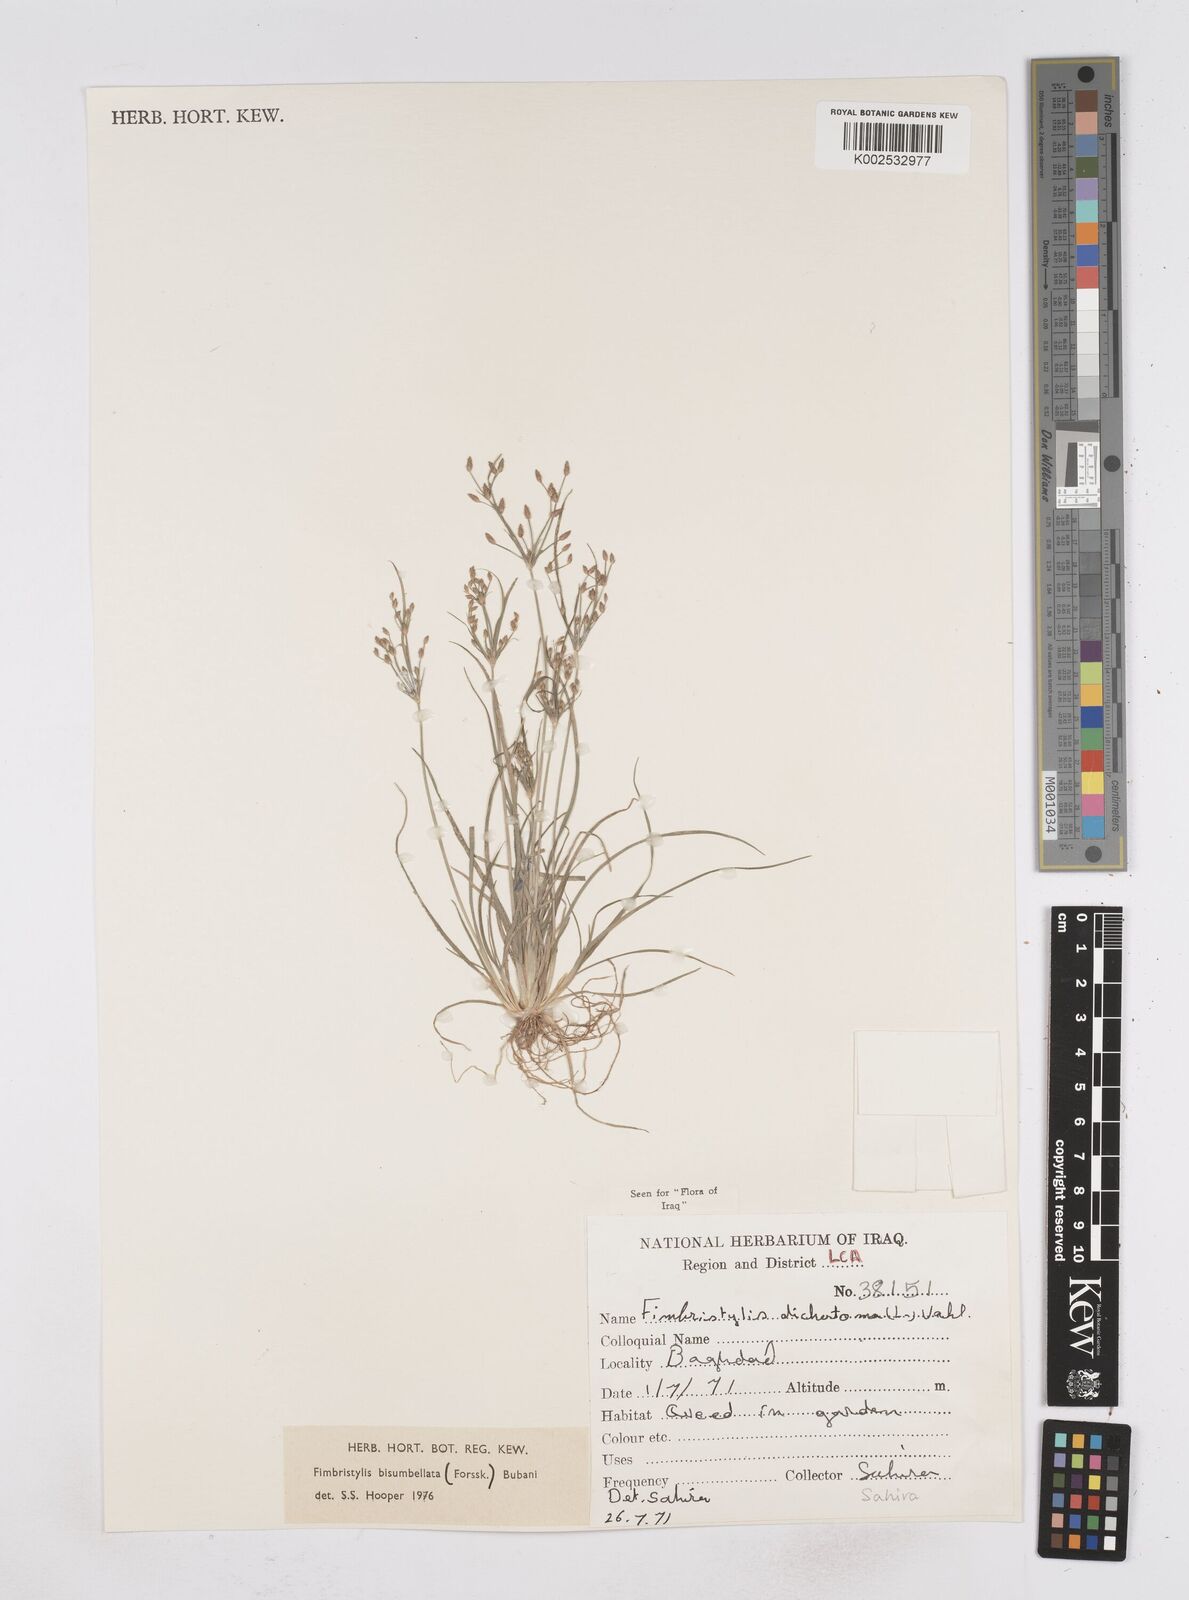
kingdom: Plantae
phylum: Tracheophyta
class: Liliopsida
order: Poales
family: Cyperaceae
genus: Fimbristylis
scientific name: Fimbristylis bisumbellata
